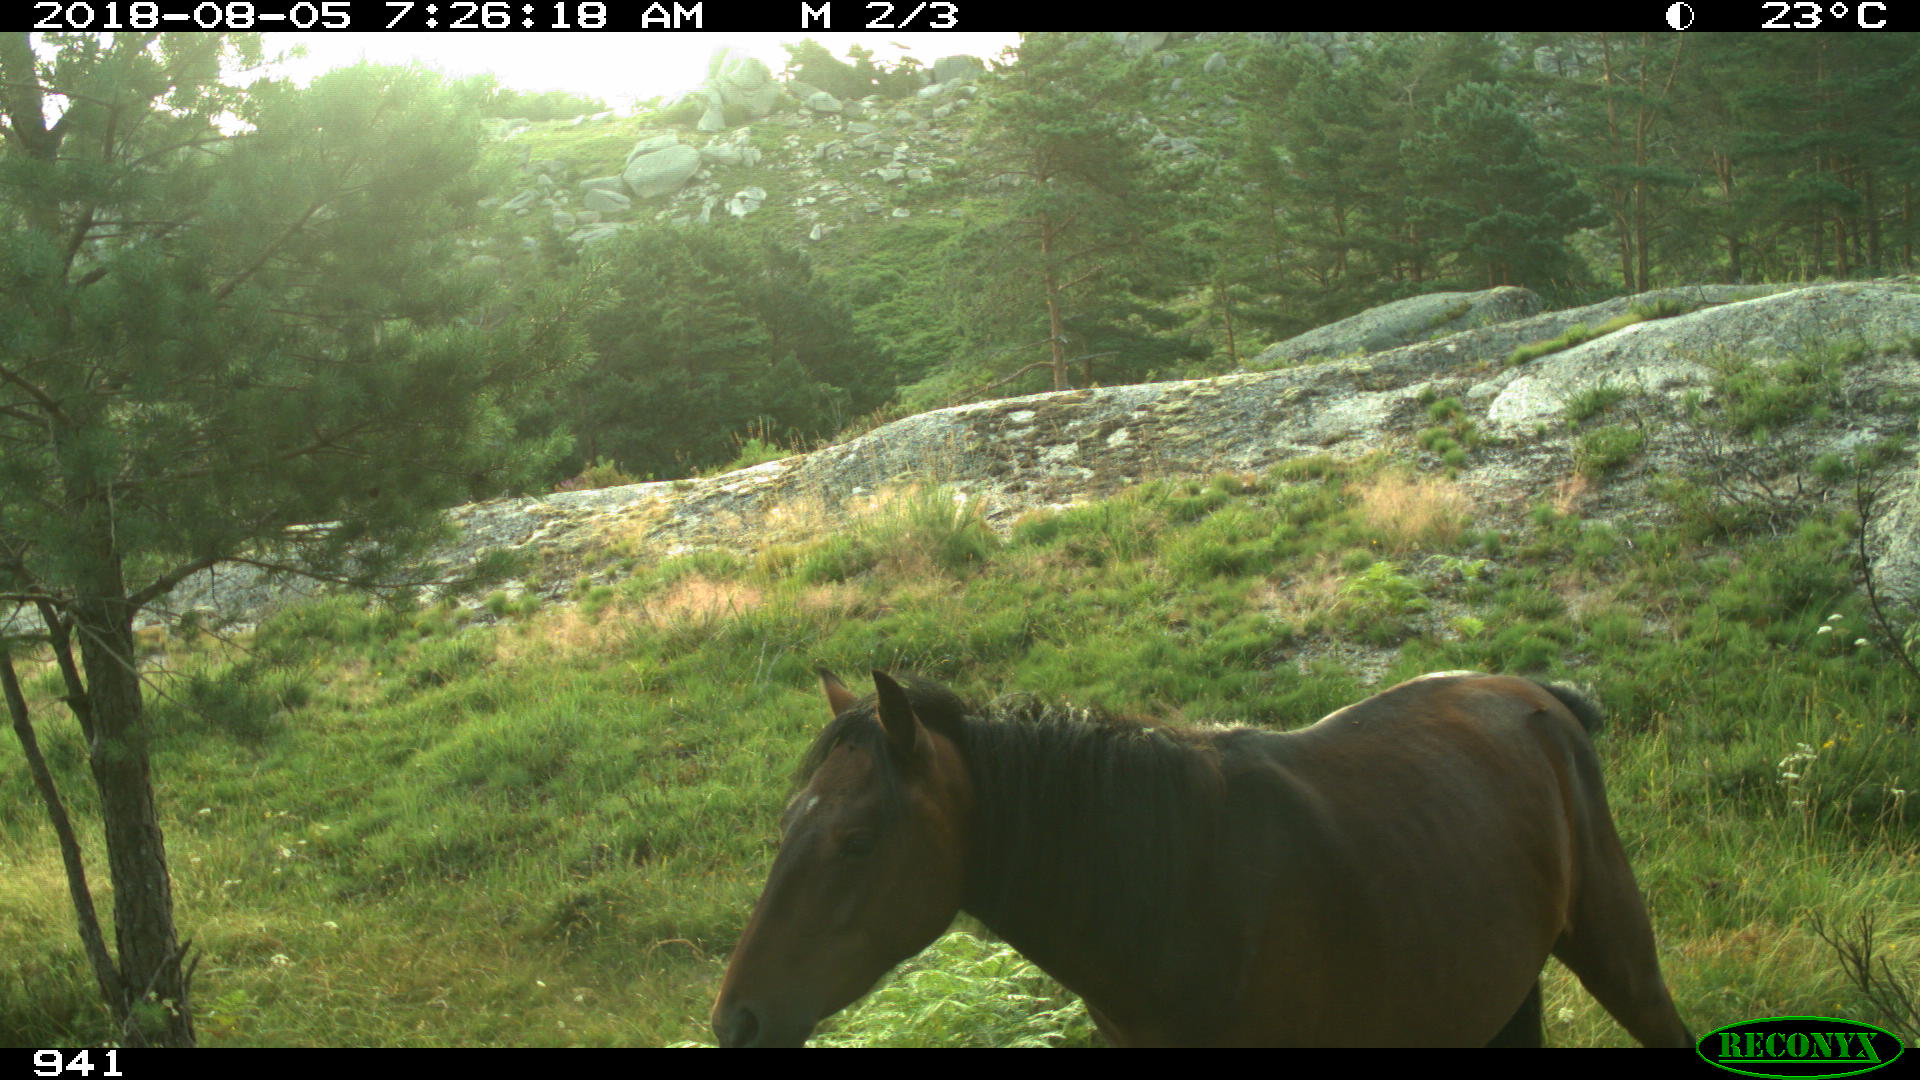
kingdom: Animalia
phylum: Chordata
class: Mammalia
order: Perissodactyla
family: Equidae
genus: Equus
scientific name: Equus caballus
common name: Horse
